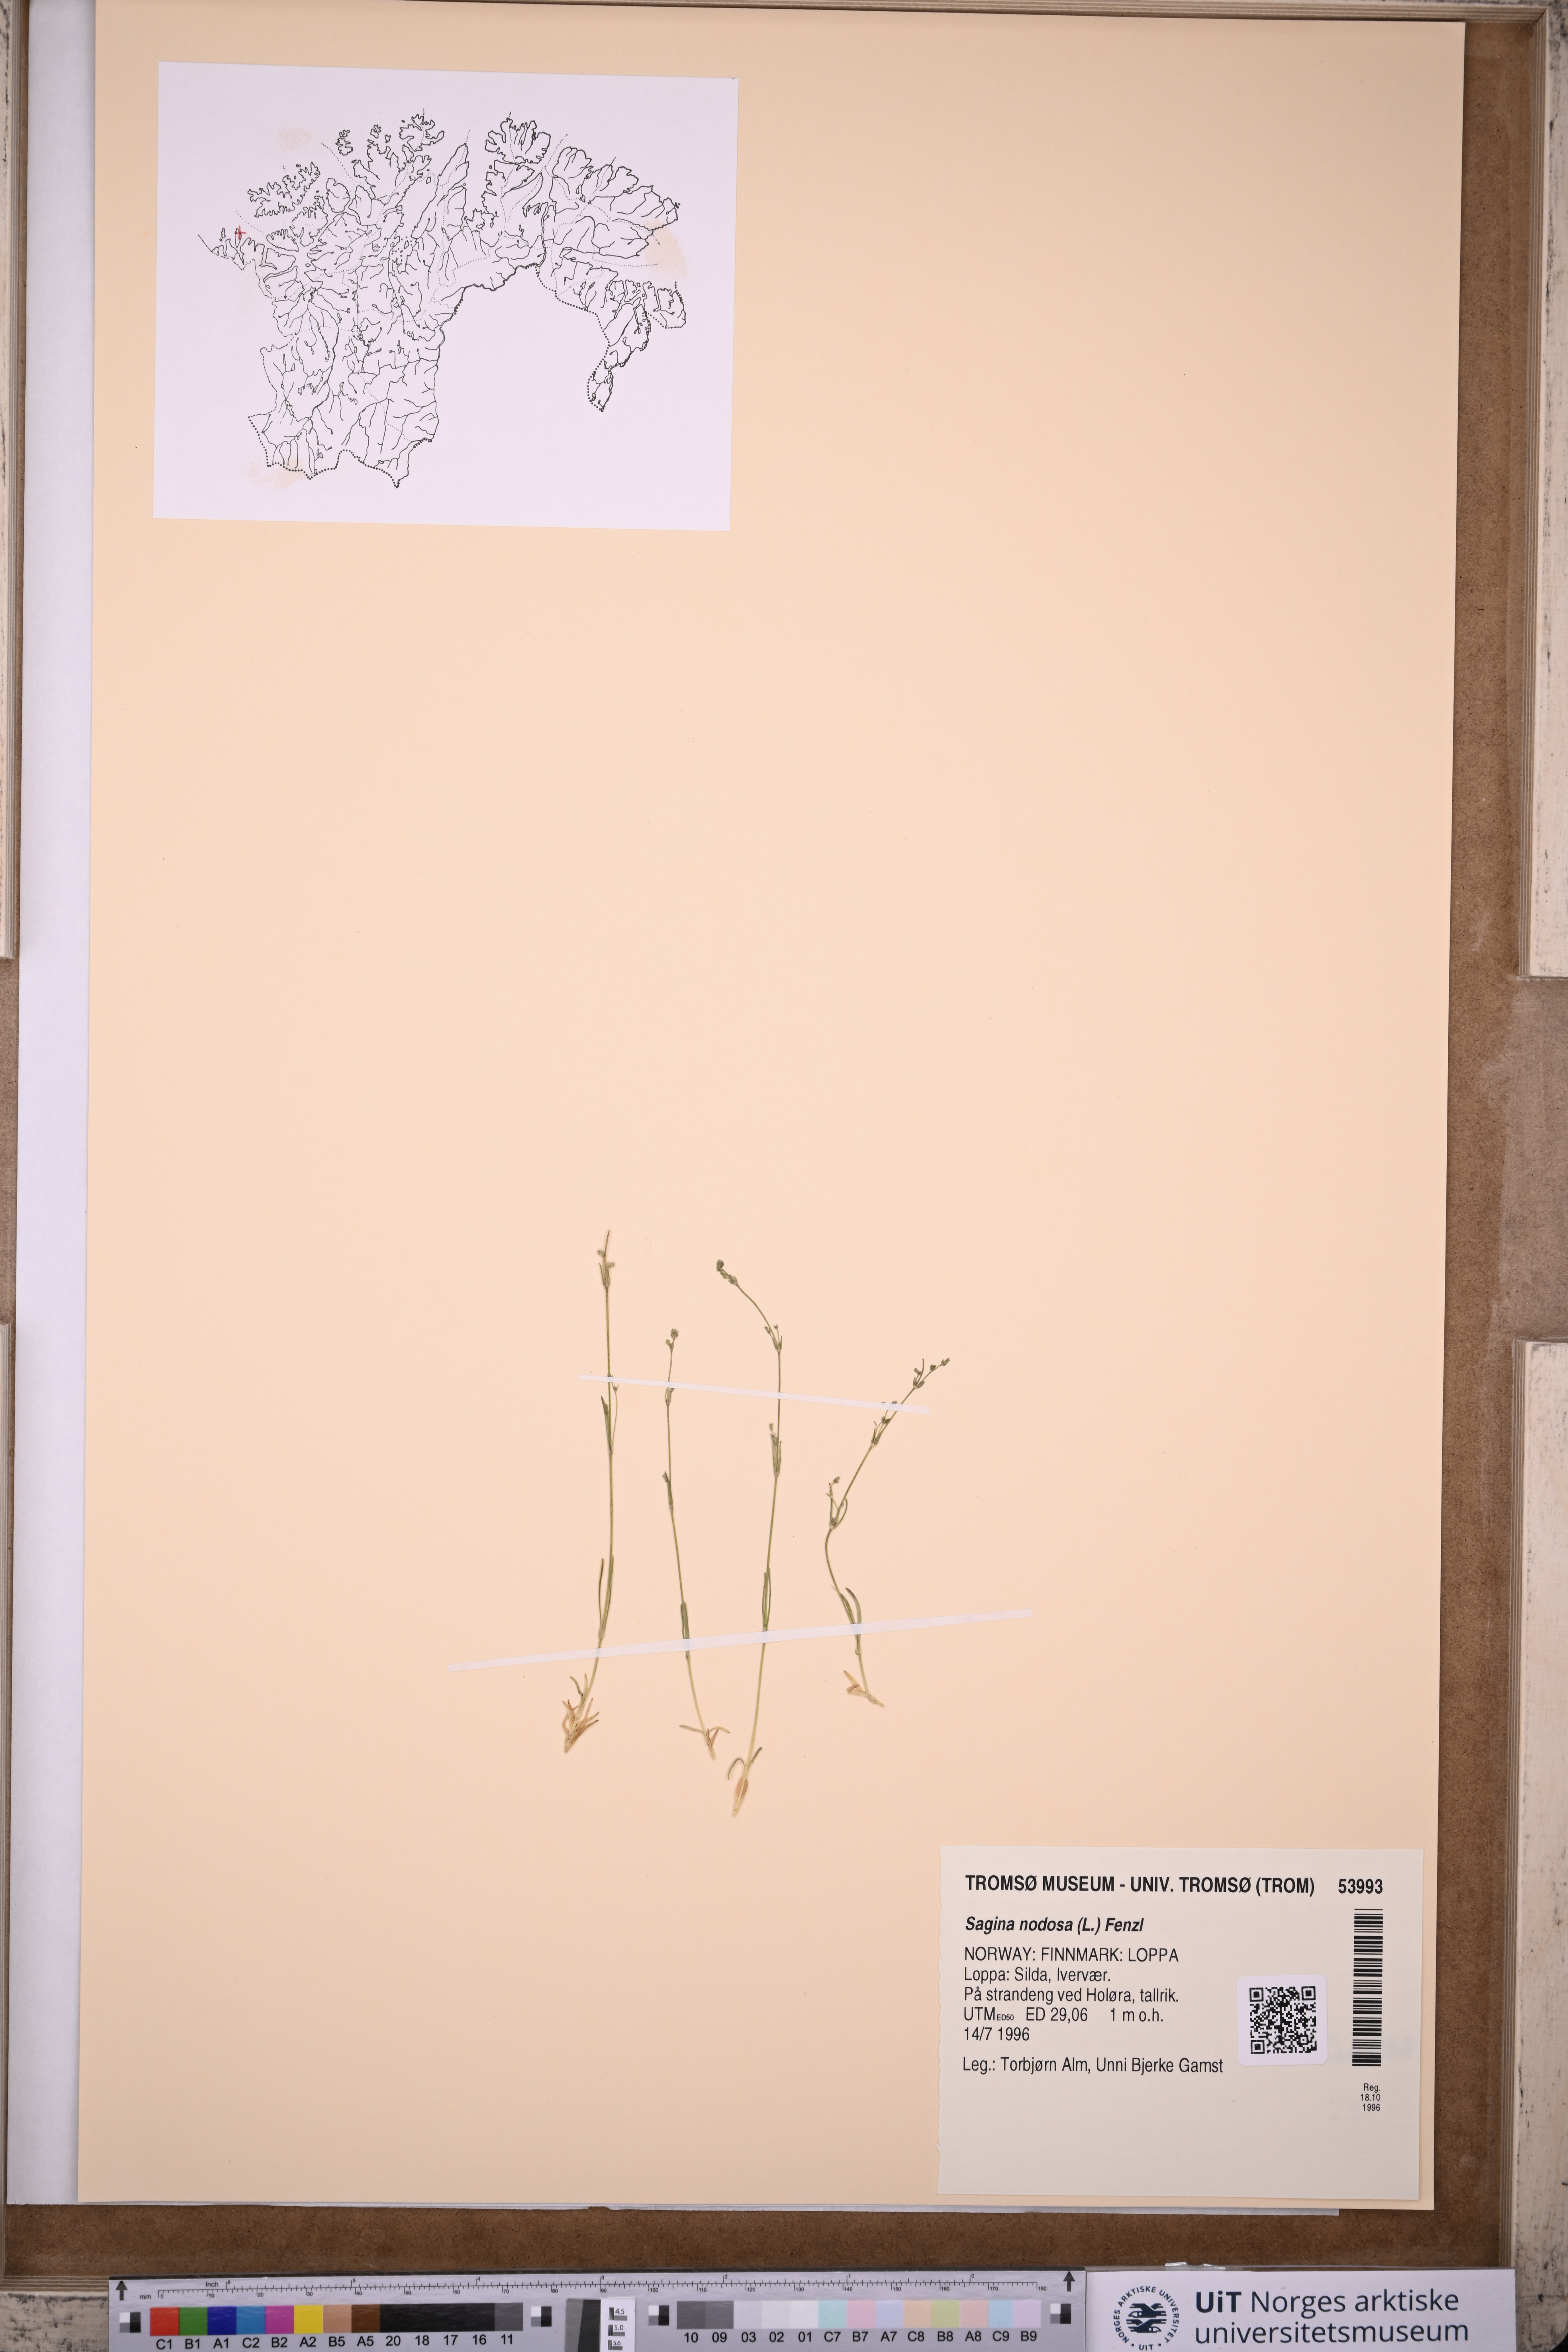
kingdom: Plantae
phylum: Tracheophyta
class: Magnoliopsida
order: Caryophyllales
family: Caryophyllaceae
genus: Sagina
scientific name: Sagina nodosa
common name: Knotted pearlwort
